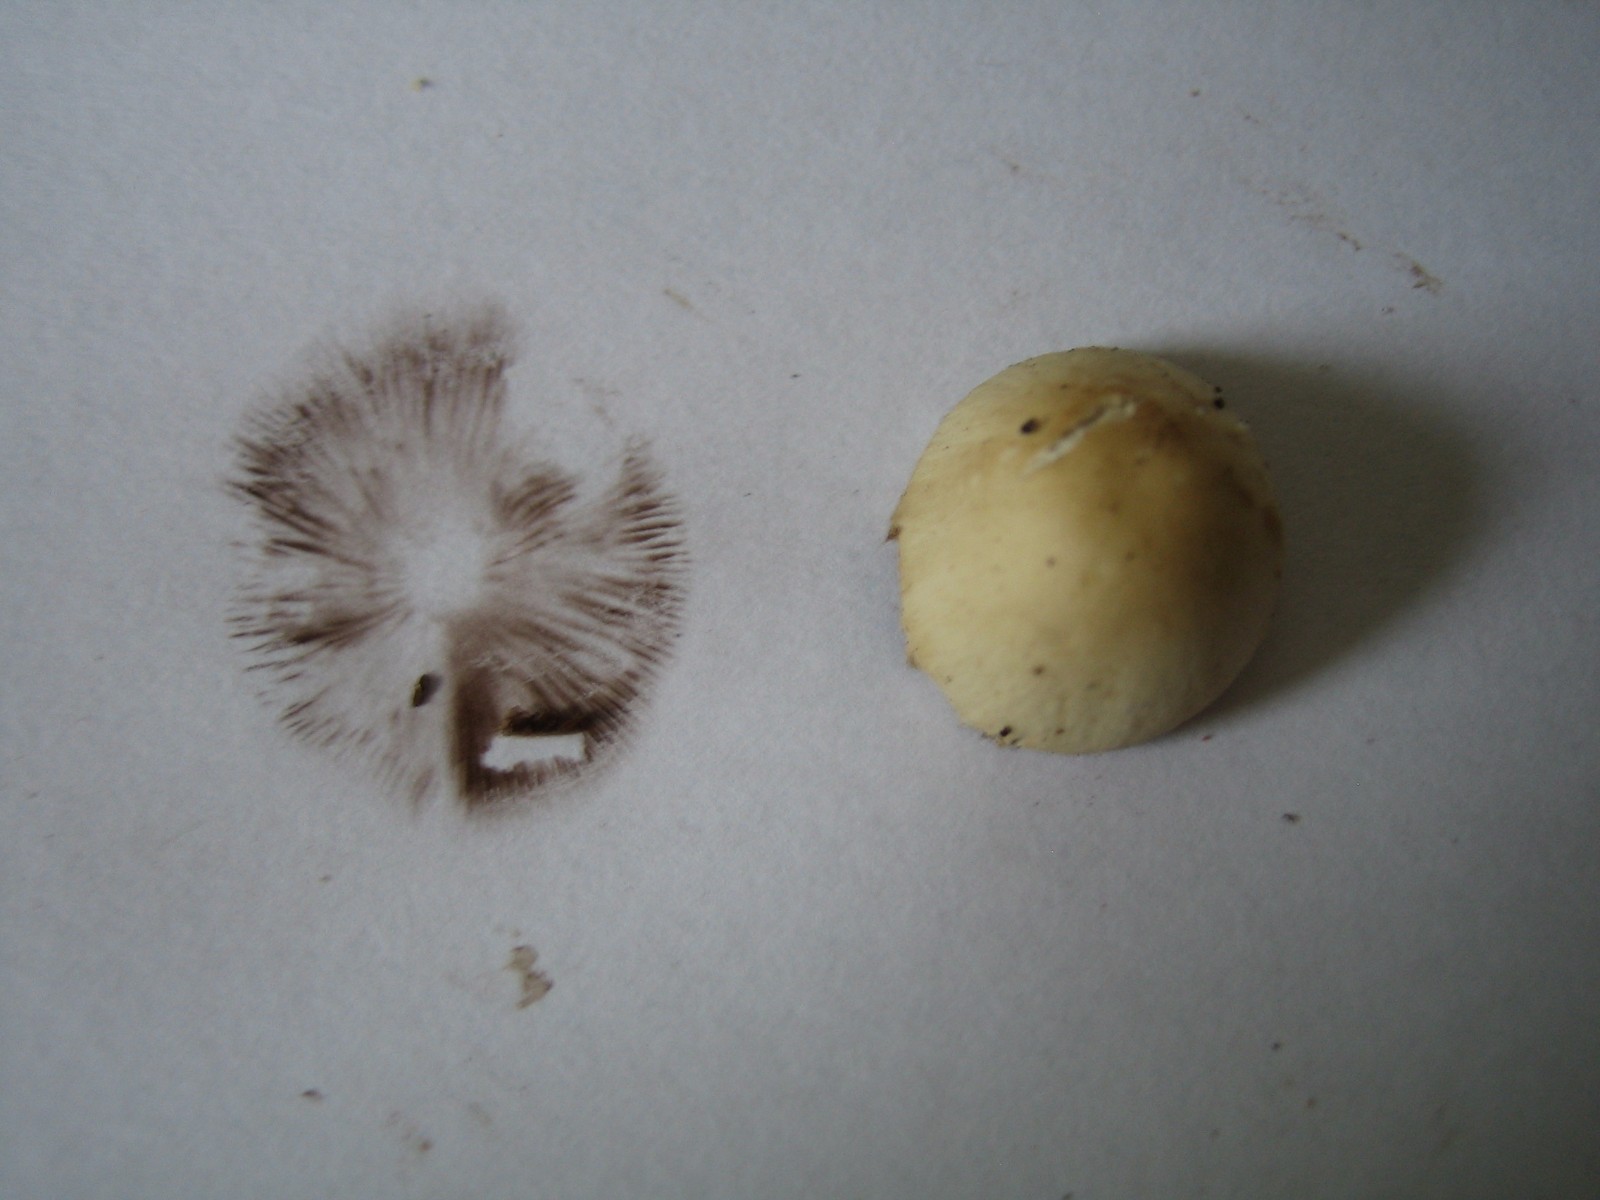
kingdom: Fungi
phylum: Basidiomycota
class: Agaricomycetes
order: Agaricales
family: Psathyrellaceae
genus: Candolleomyces
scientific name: Candolleomyces candolleanus
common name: Candolles mørkhat
